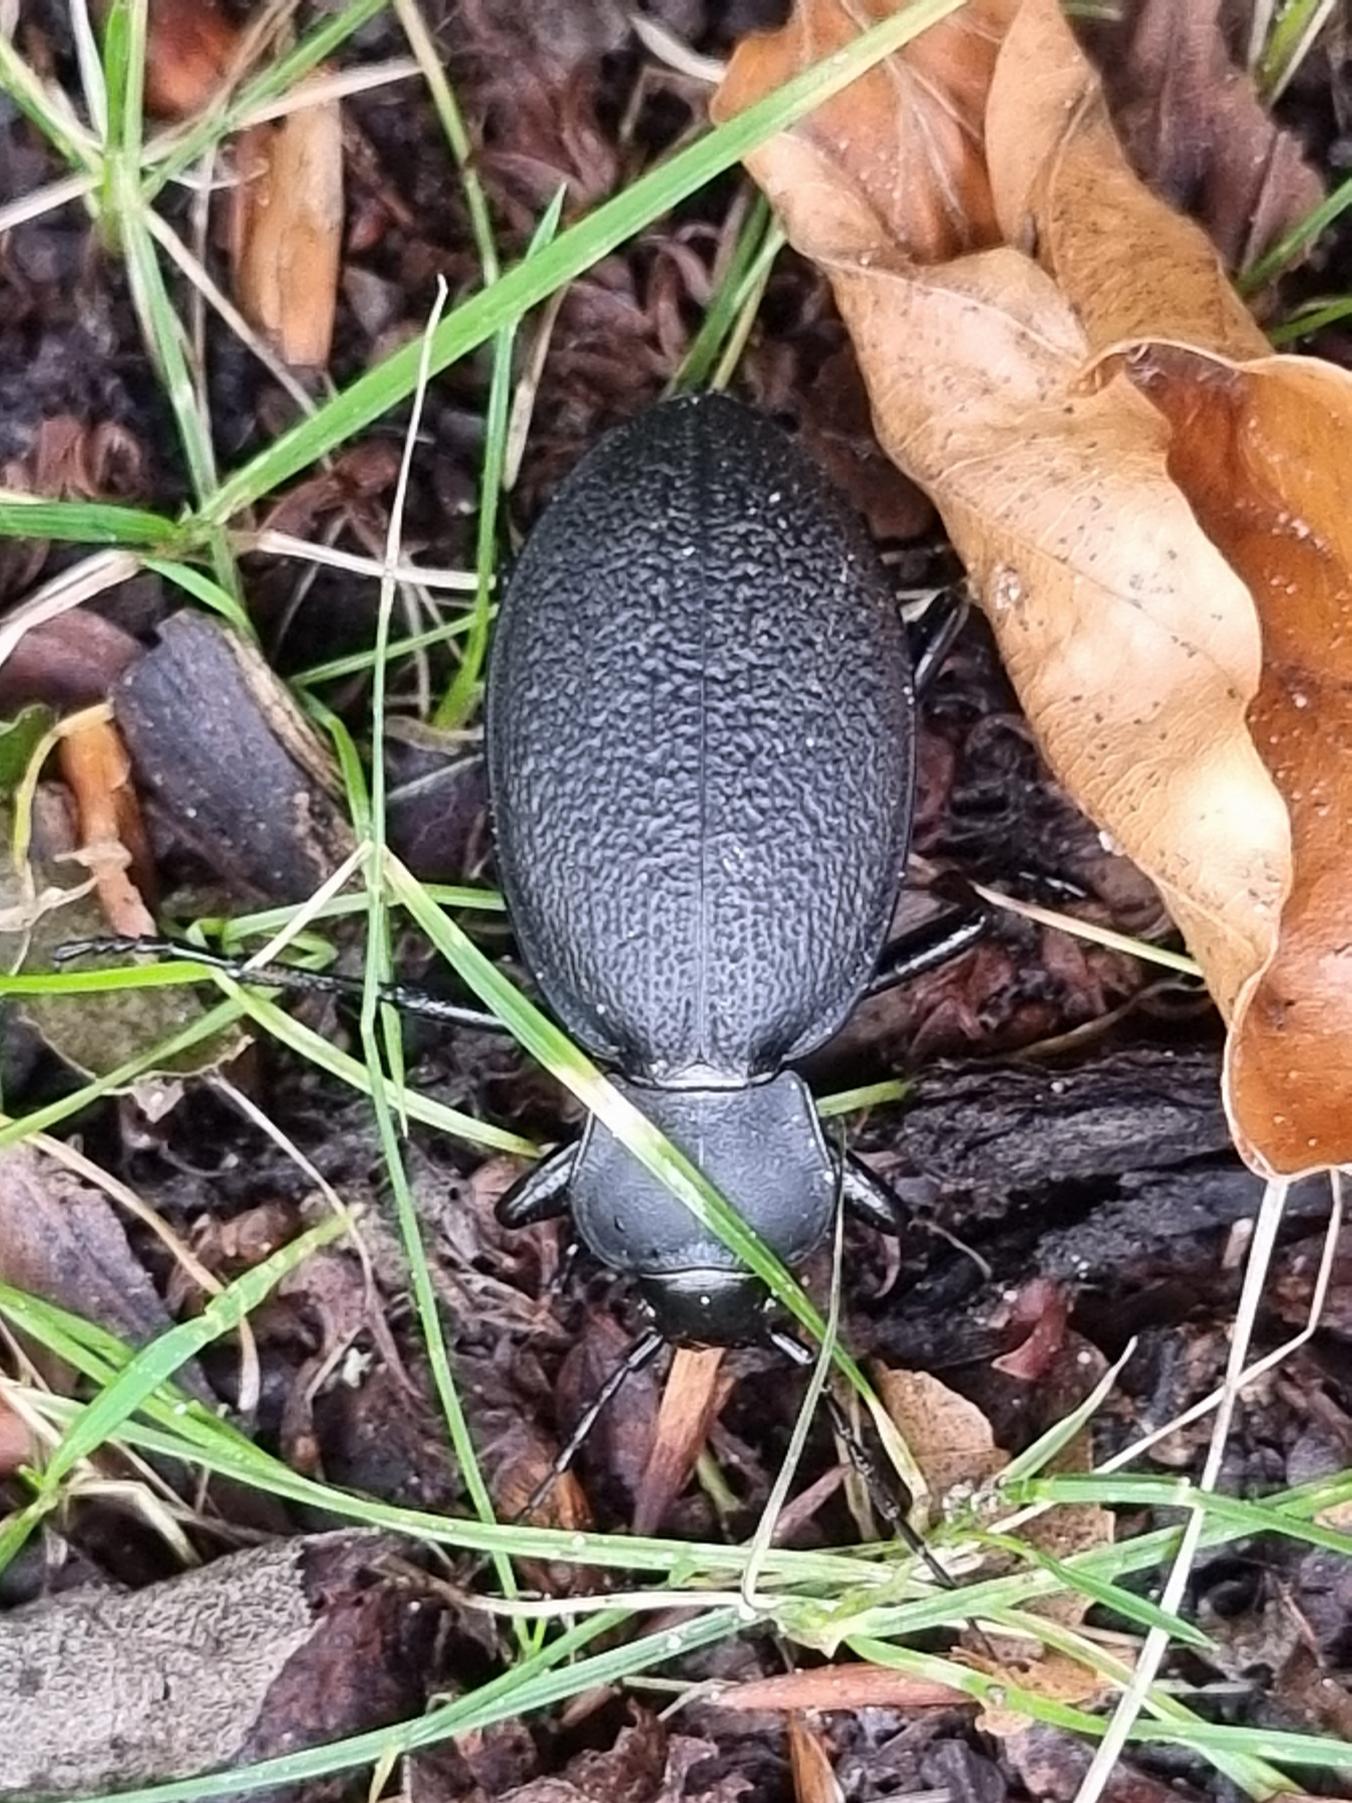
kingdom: Animalia
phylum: Arthropoda
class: Insecta
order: Coleoptera
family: Carabidae
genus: Carabus
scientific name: Carabus coriaceus
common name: Læderløber
